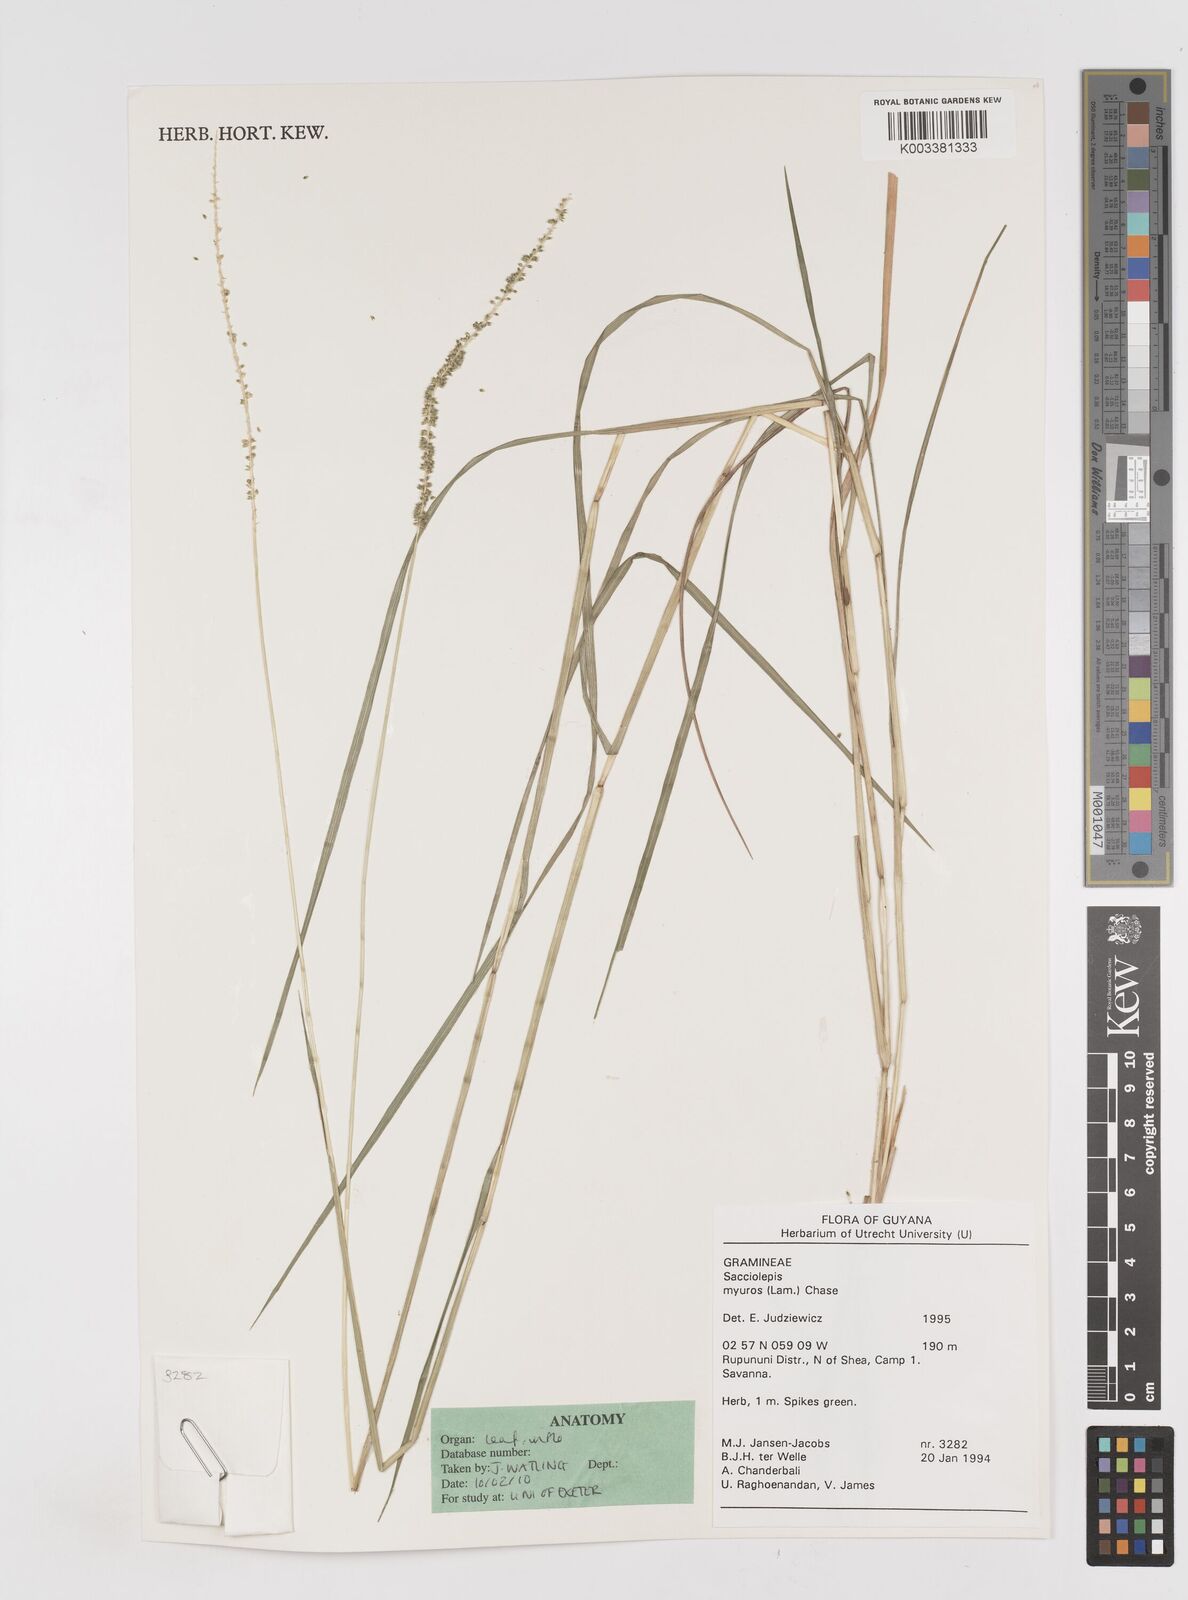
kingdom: Plantae
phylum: Tracheophyta
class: Liliopsida
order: Poales
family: Poaceae
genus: Sacciolepis
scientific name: Sacciolepis myuros
